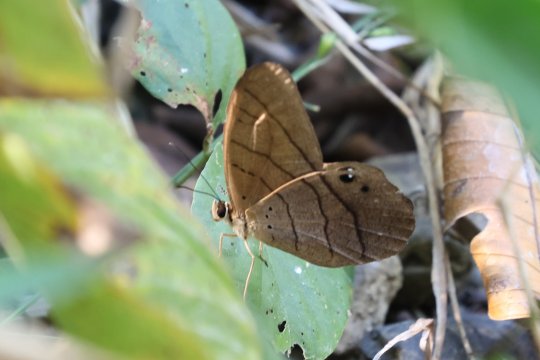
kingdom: Animalia
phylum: Arthropoda
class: Insecta
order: Lepidoptera
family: Nymphalidae
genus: Pierella
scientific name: Pierella luna
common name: Moon Satyr
